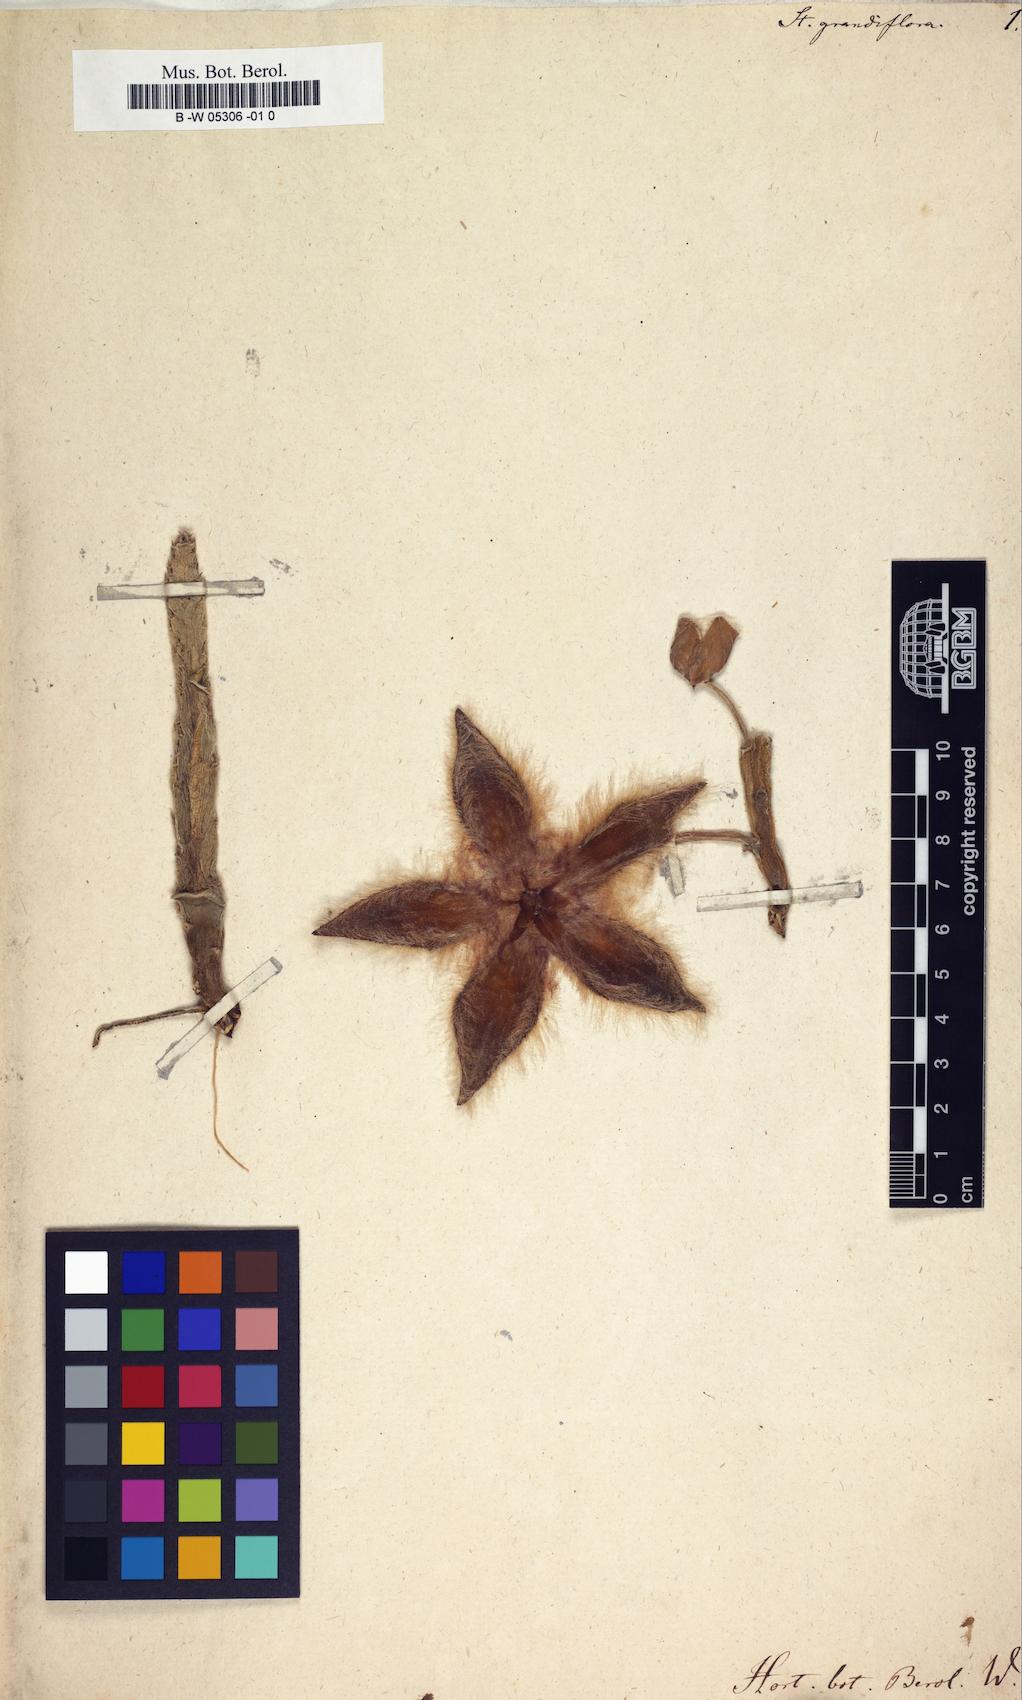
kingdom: Plantae
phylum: Tracheophyta
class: Magnoliopsida
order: Gentianales
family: Apocynaceae
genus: Stapelia
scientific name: Stapelia grandiflora
